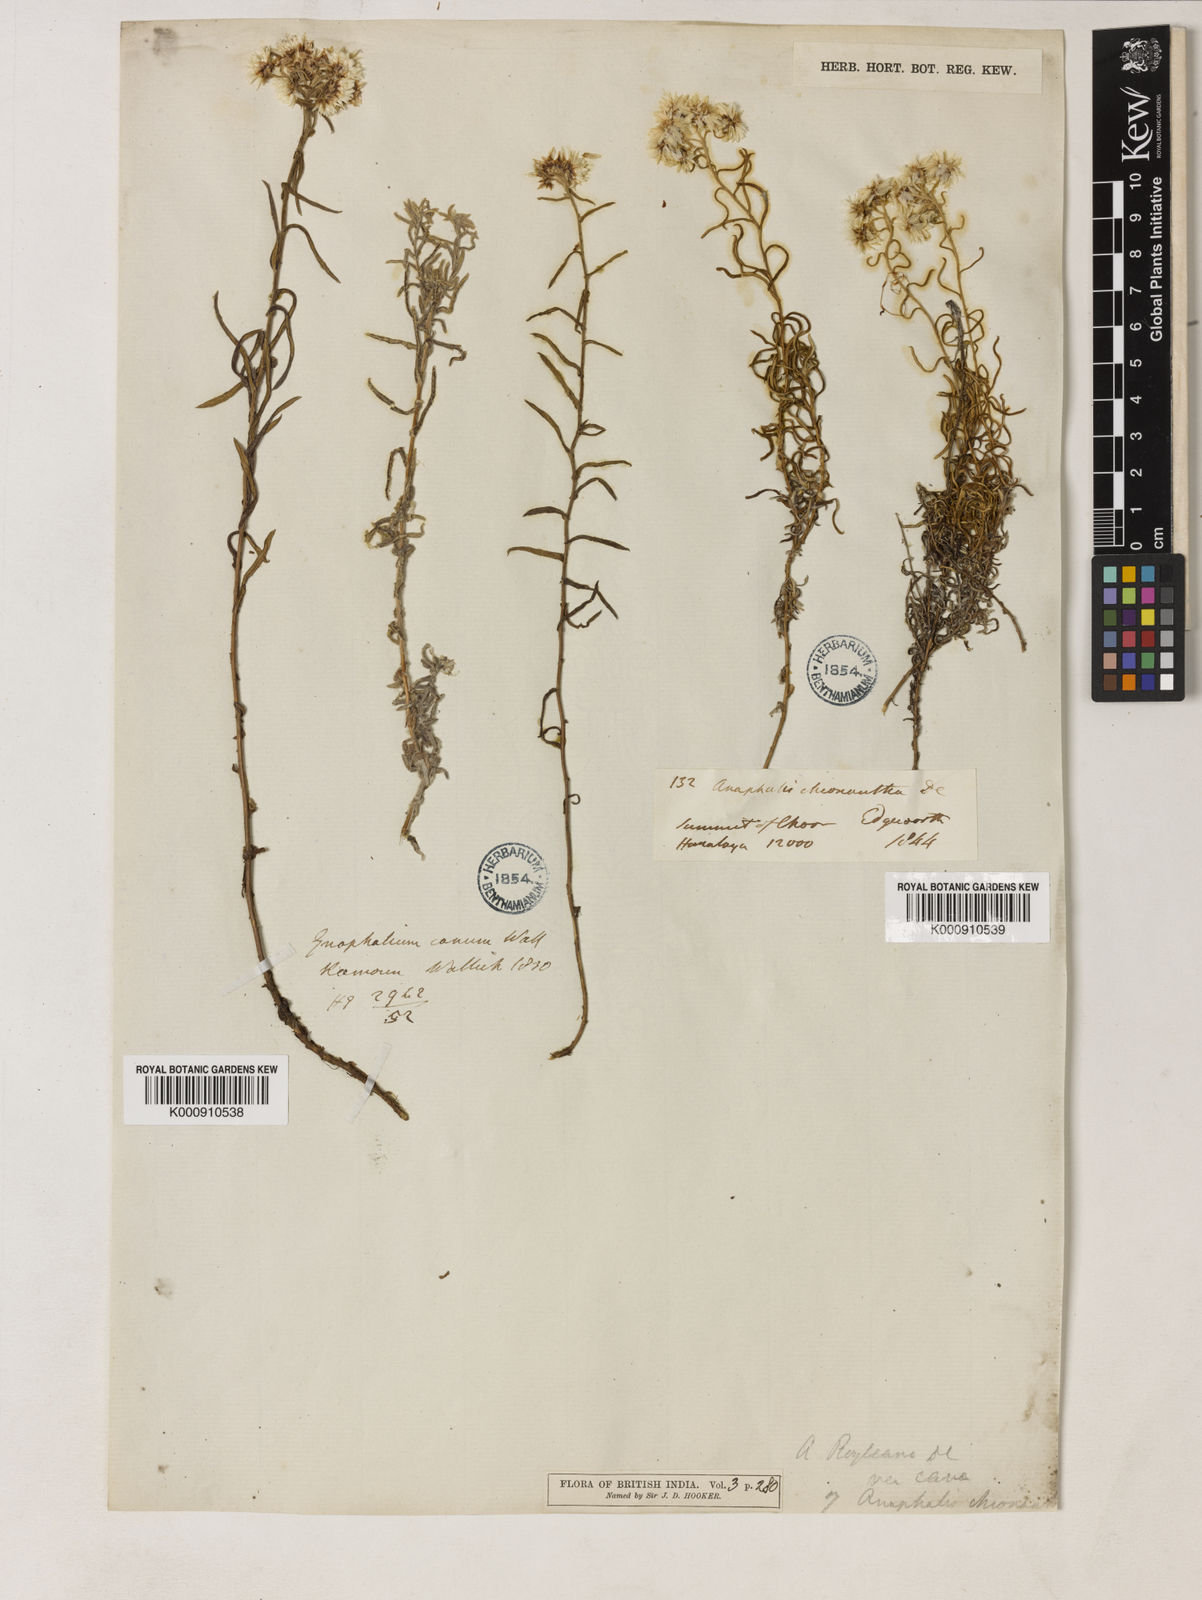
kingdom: Plantae
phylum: Tracheophyta
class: Magnoliopsida
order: Asterales
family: Asteraceae
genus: Anaphalis
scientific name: Anaphalis royleana
